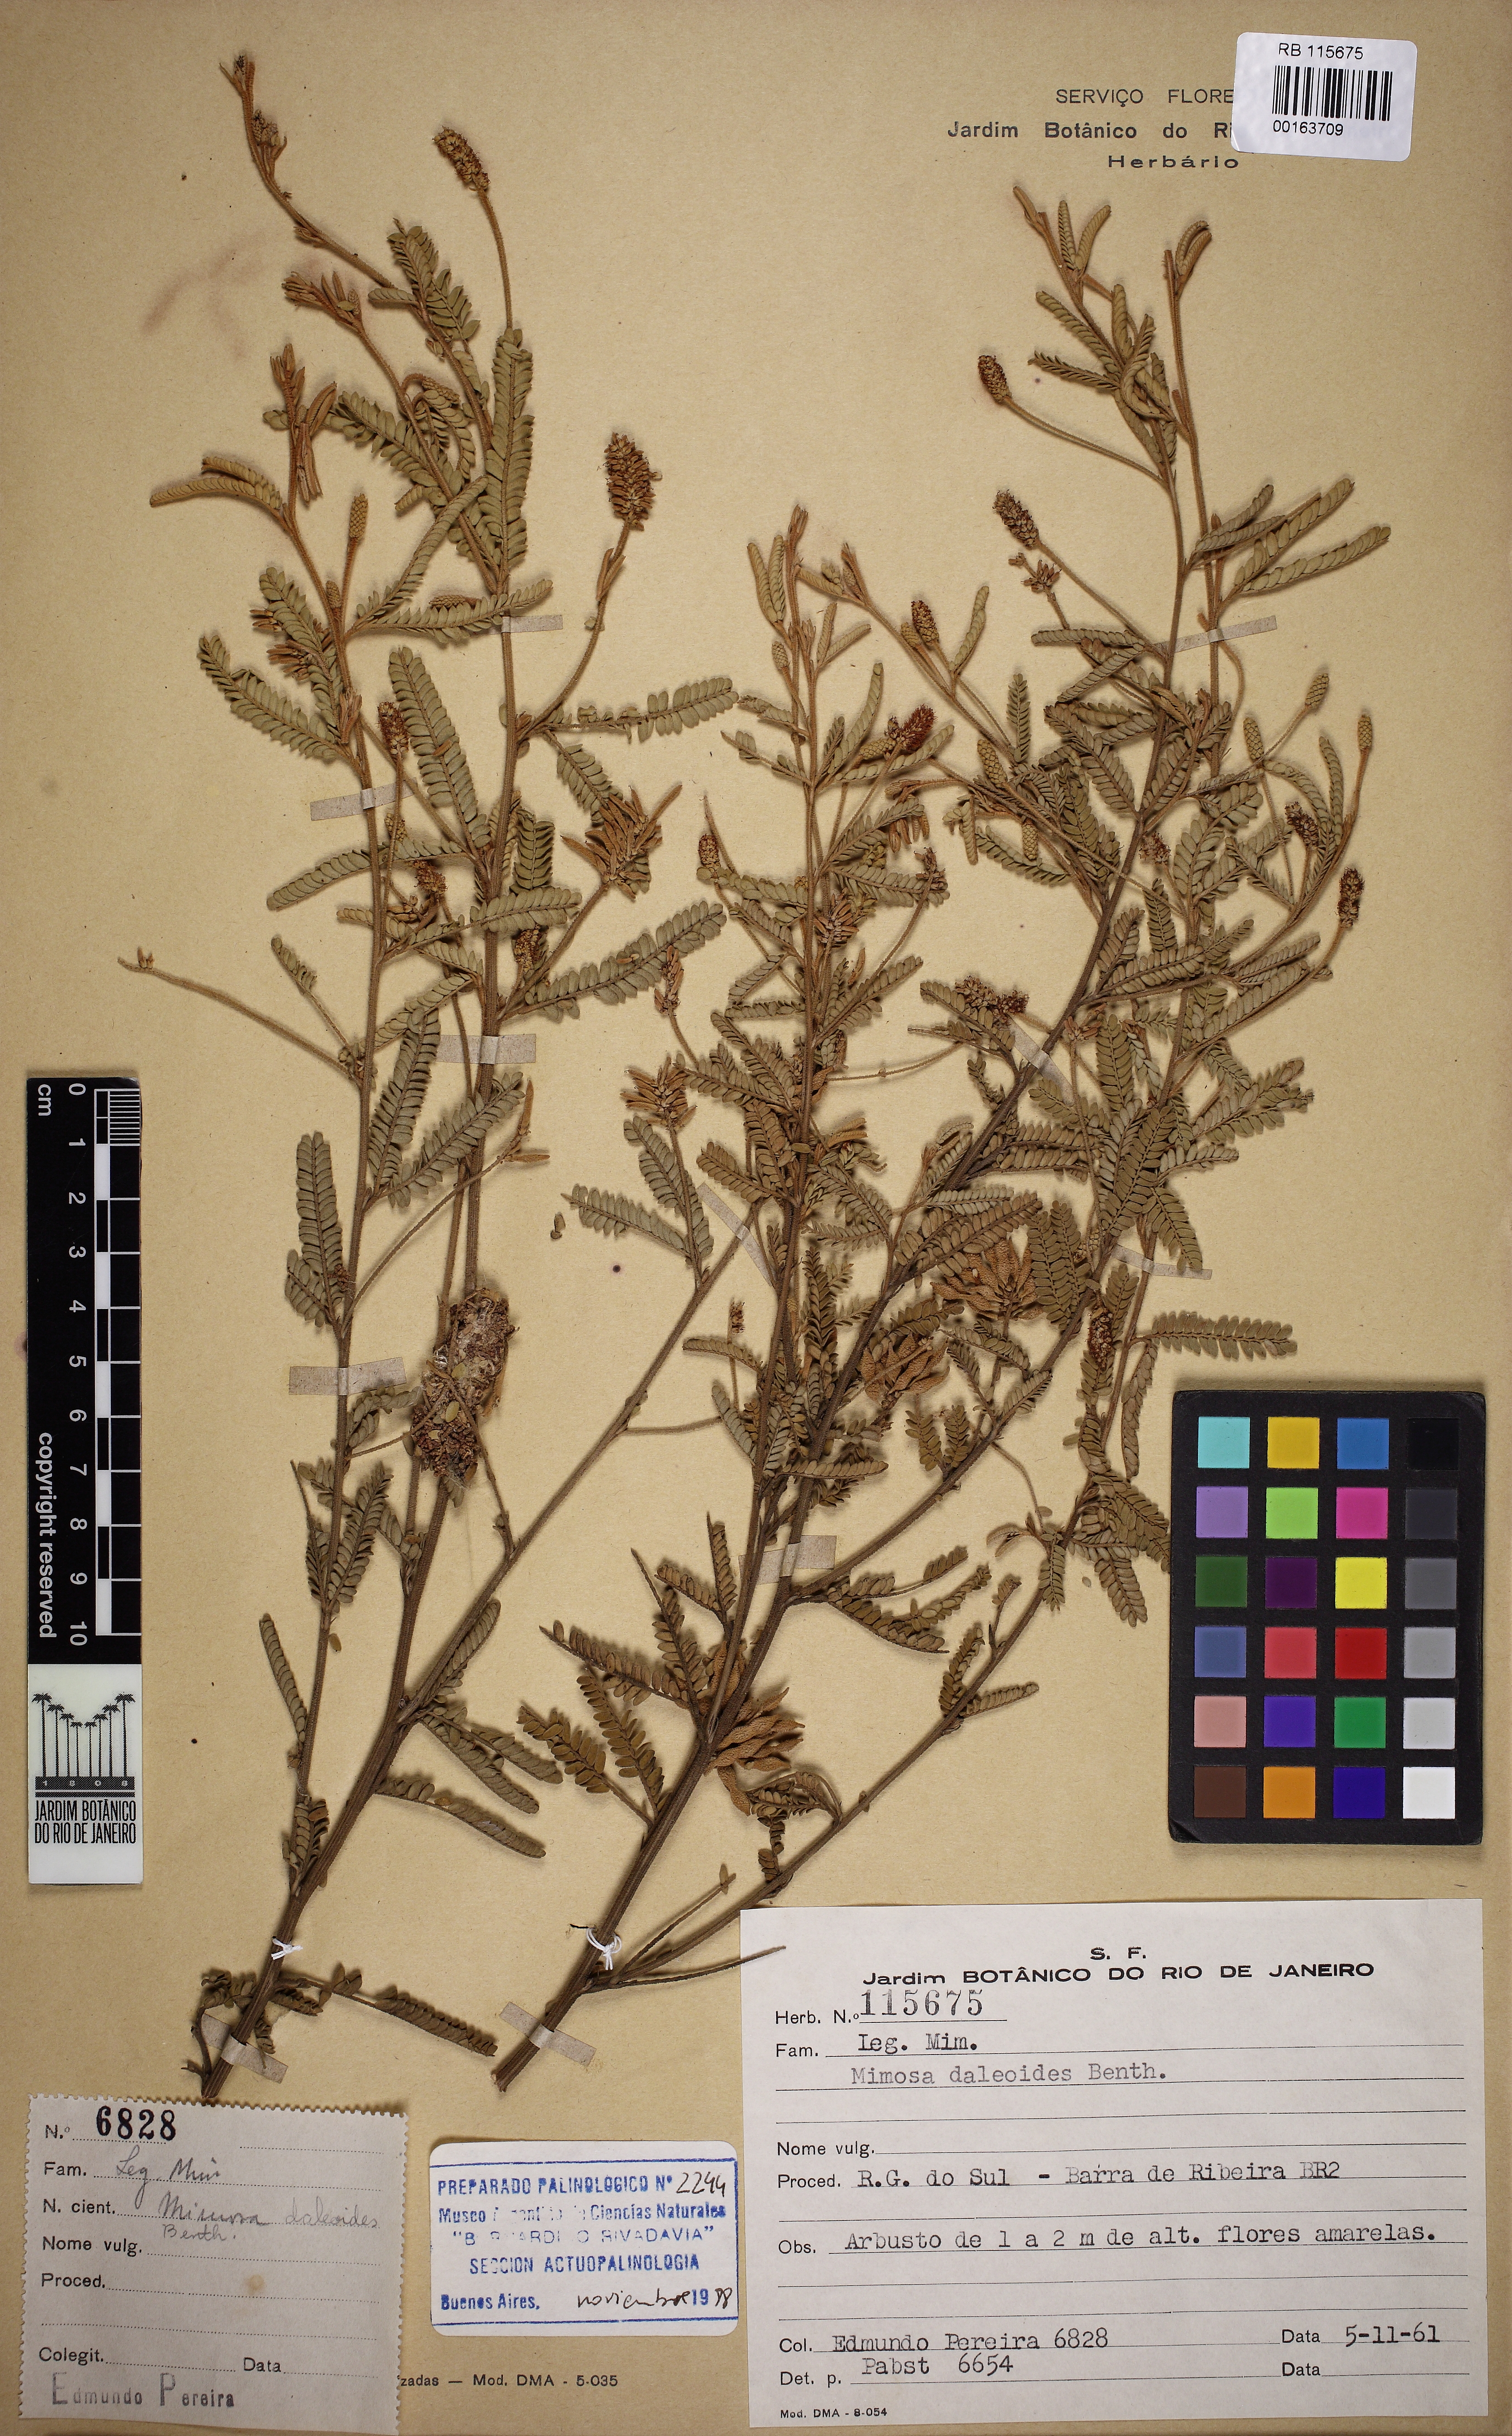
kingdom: Plantae
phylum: Tracheophyta
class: Magnoliopsida
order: Fabales
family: Fabaceae
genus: Mimosa
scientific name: Mimosa daleoides
